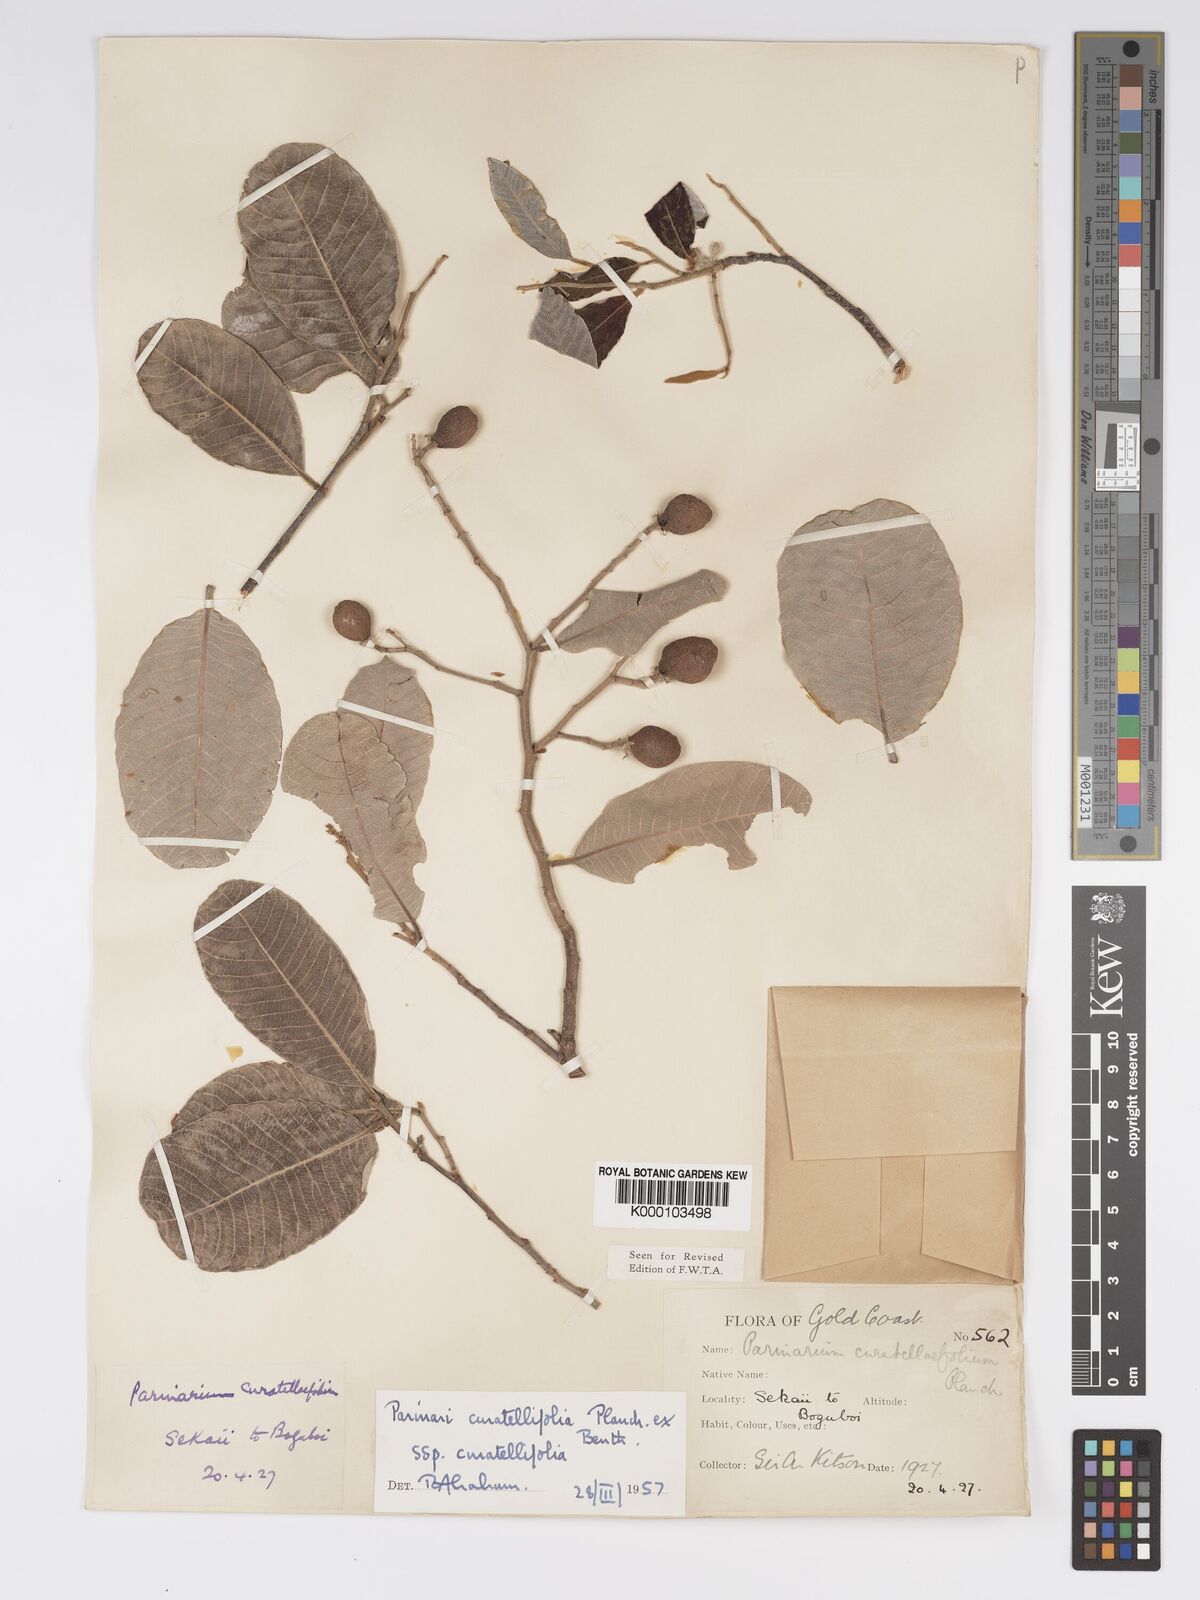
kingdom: Plantae
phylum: Tracheophyta
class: Magnoliopsida
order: Malpighiales
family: Chrysobalanaceae
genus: Parinari
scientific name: Parinari curatellifolia
